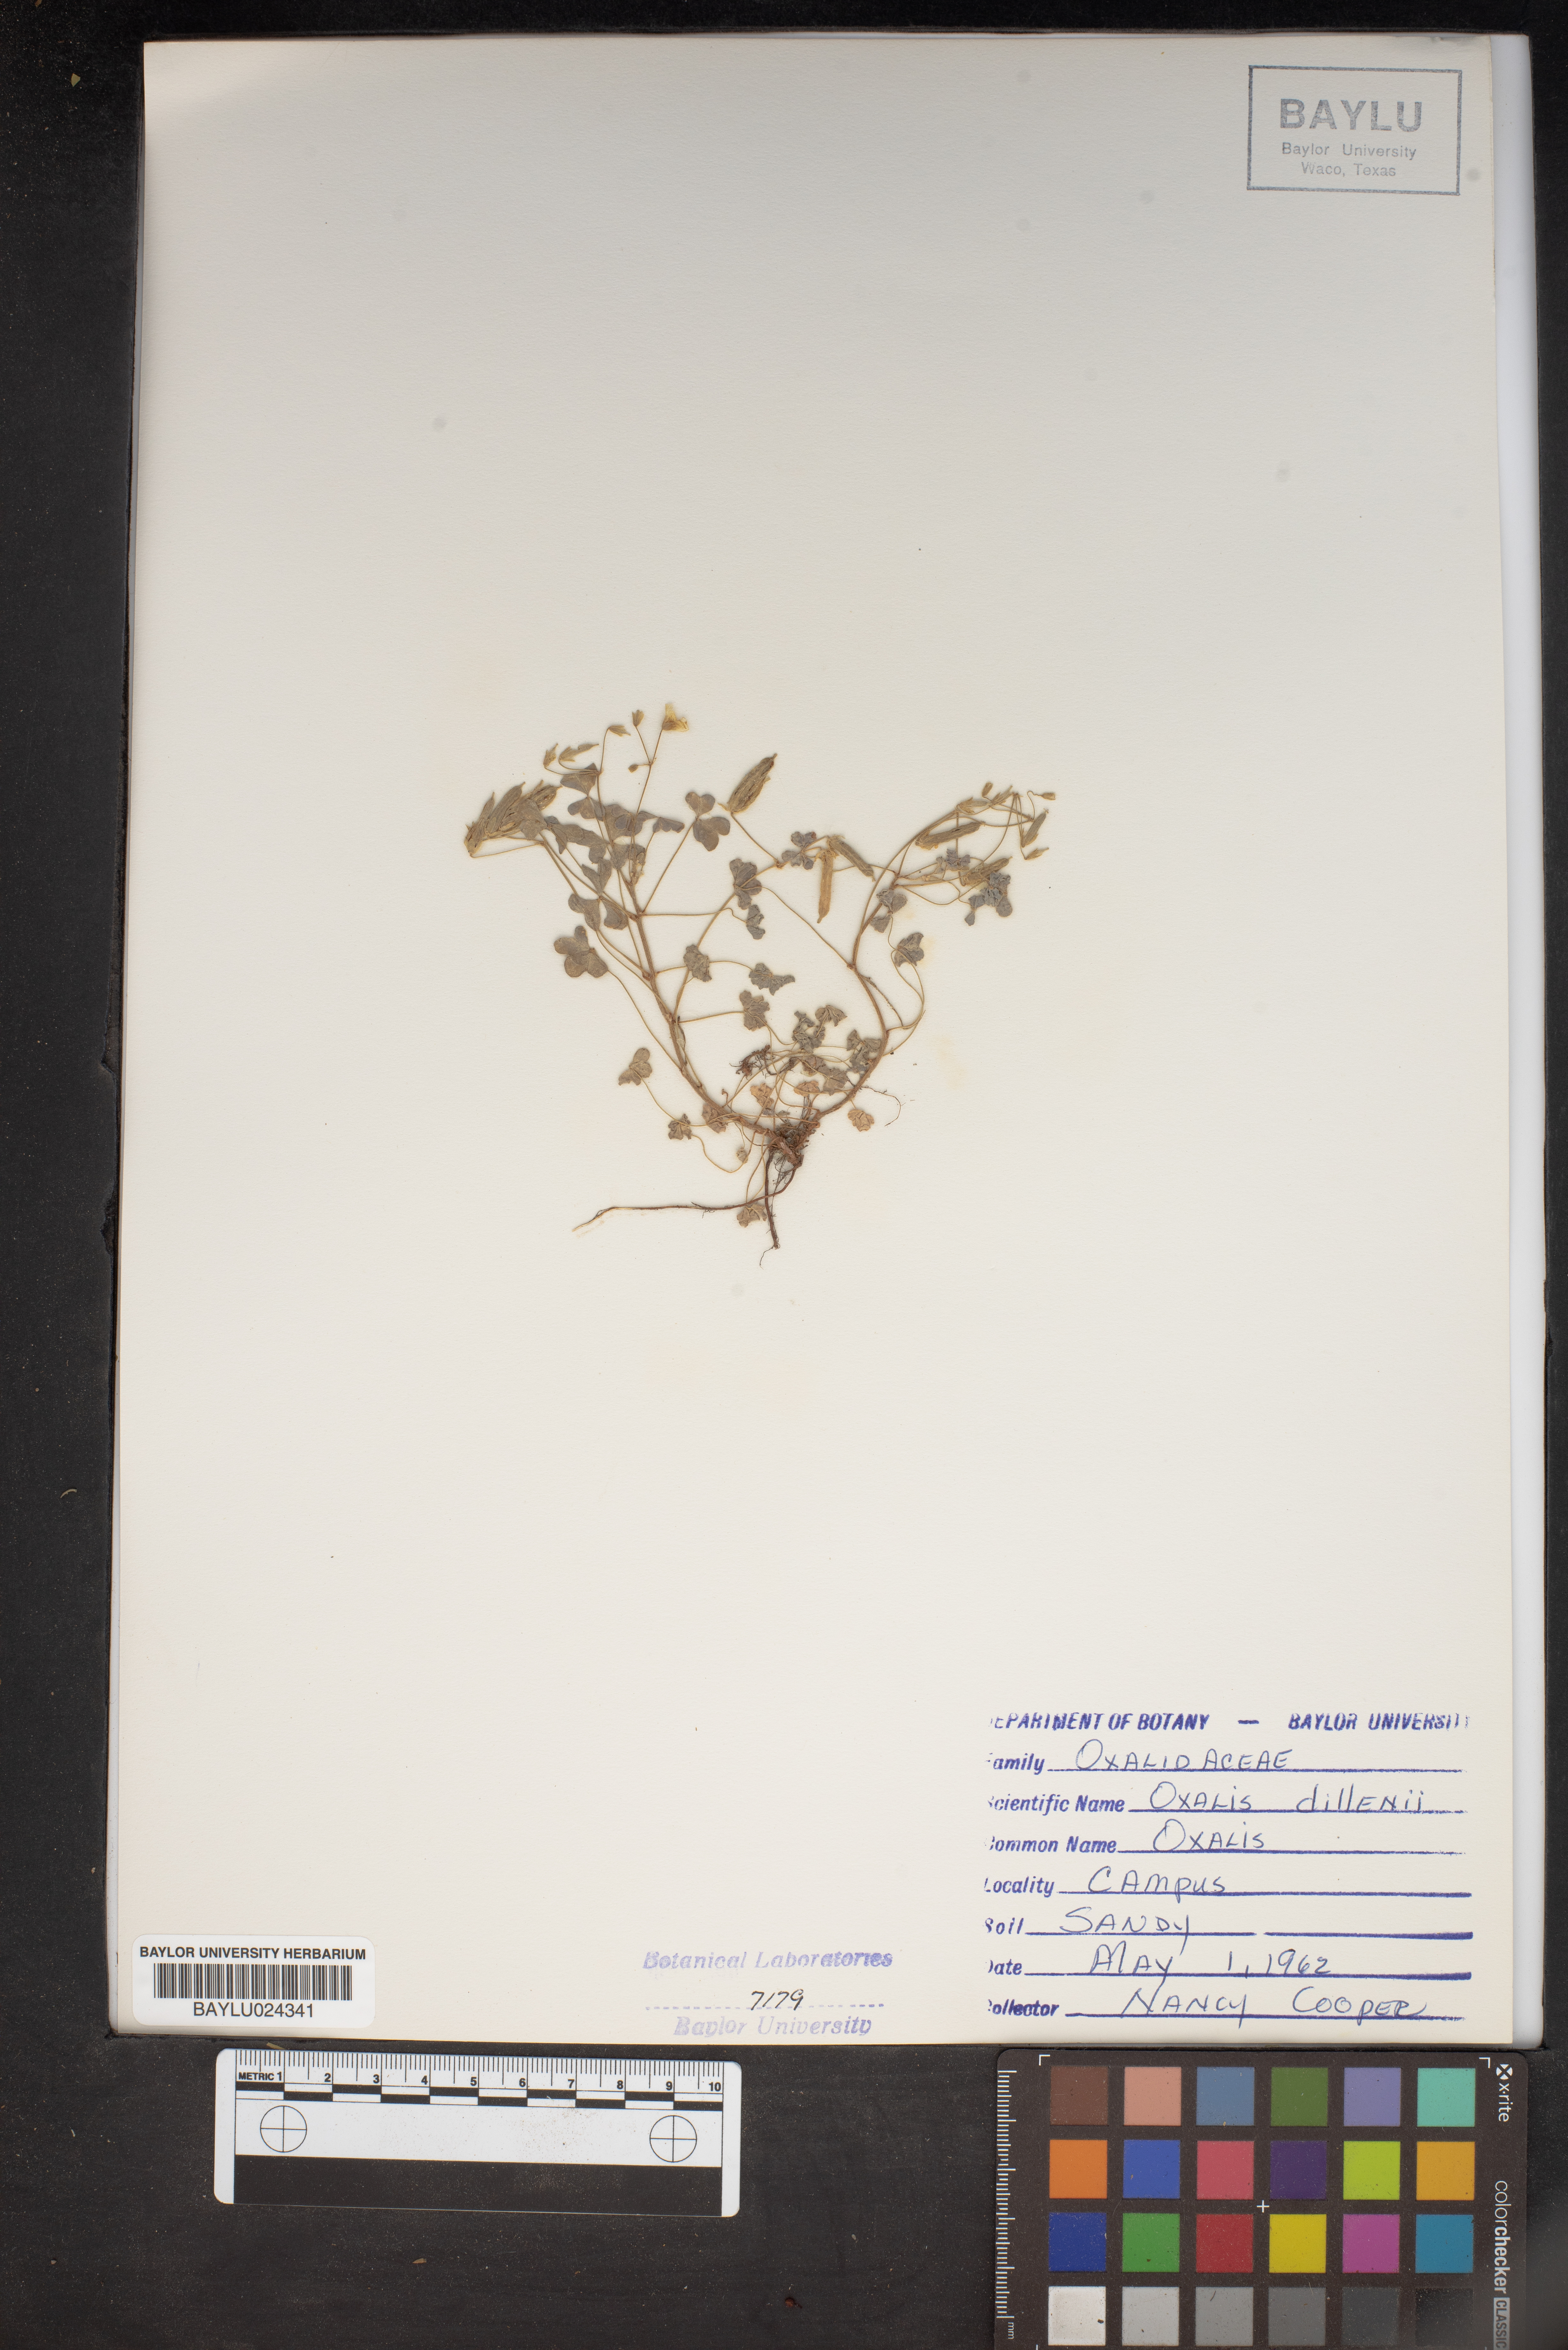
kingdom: Plantae
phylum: Tracheophyta
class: Magnoliopsida
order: Oxalidales
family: Oxalidaceae
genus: Oxalis
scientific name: Oxalis dillenii
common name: Sussex yellow-sorrel
